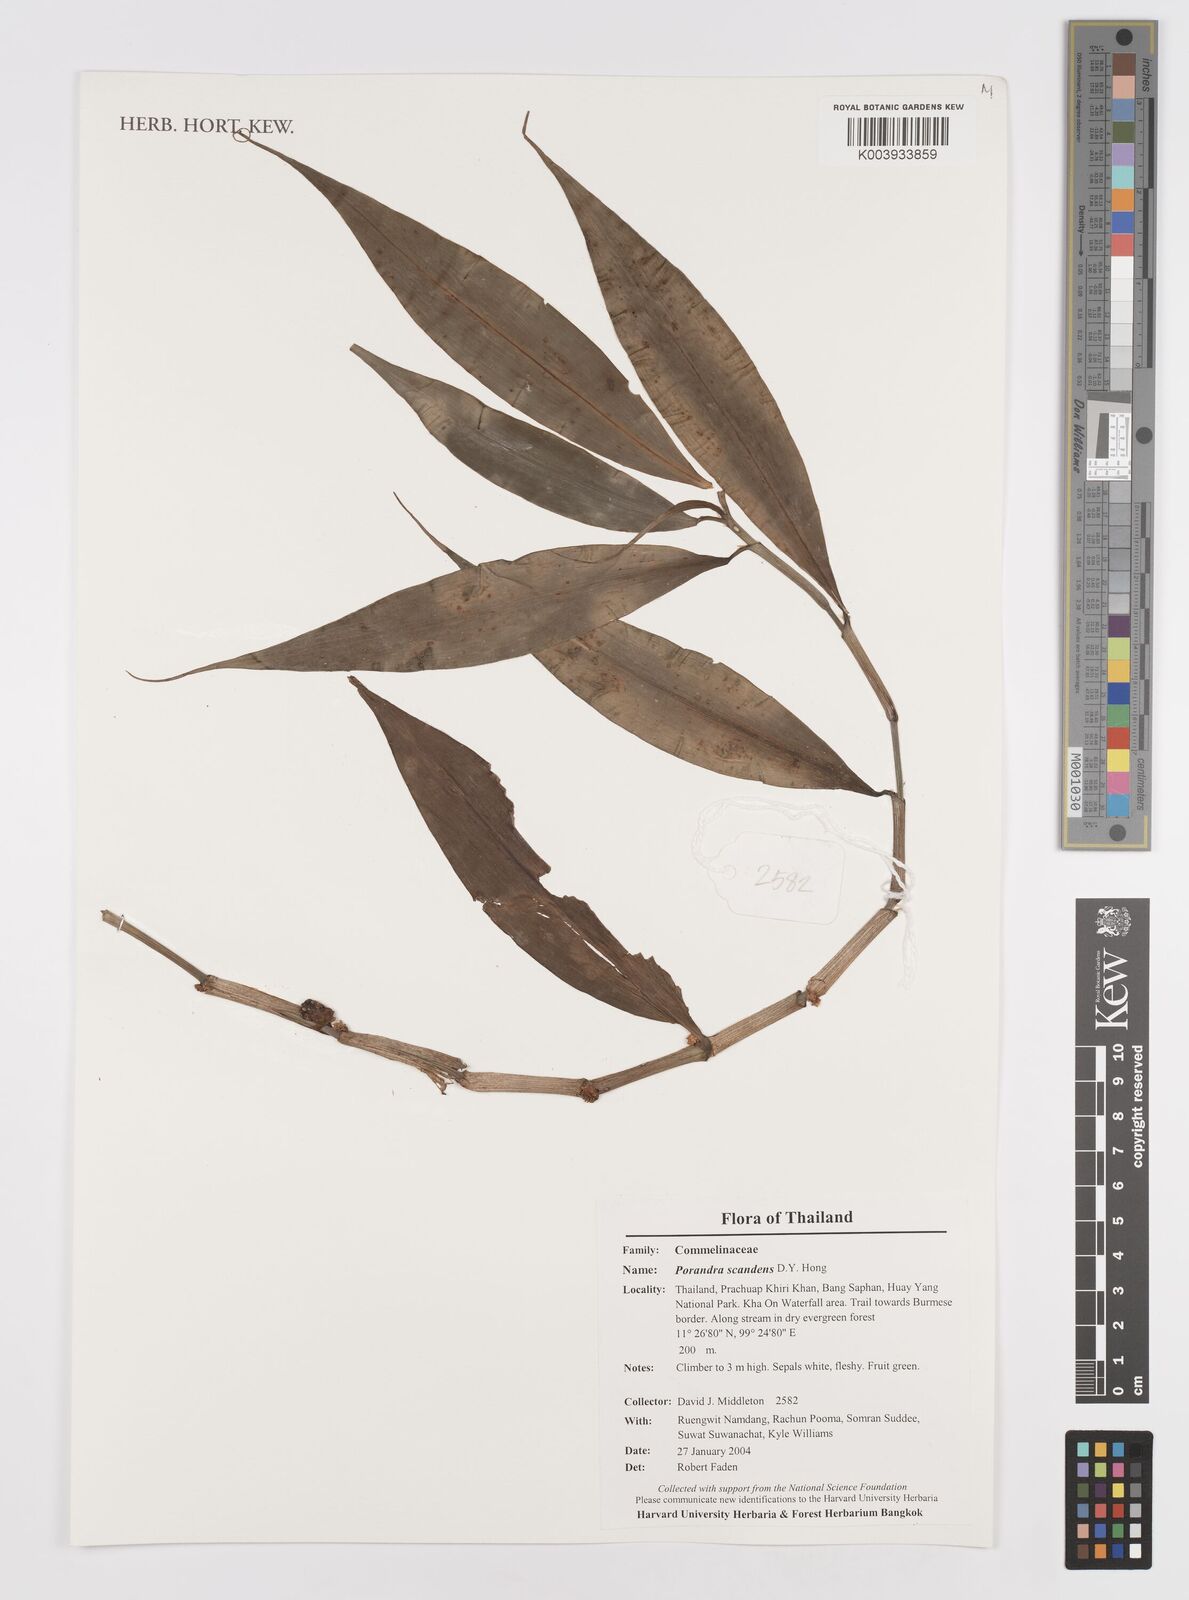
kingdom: Plantae
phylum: Tracheophyta
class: Liliopsida
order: Commelinales
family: Commelinaceae
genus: Amischotolype
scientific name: Amischotolype
